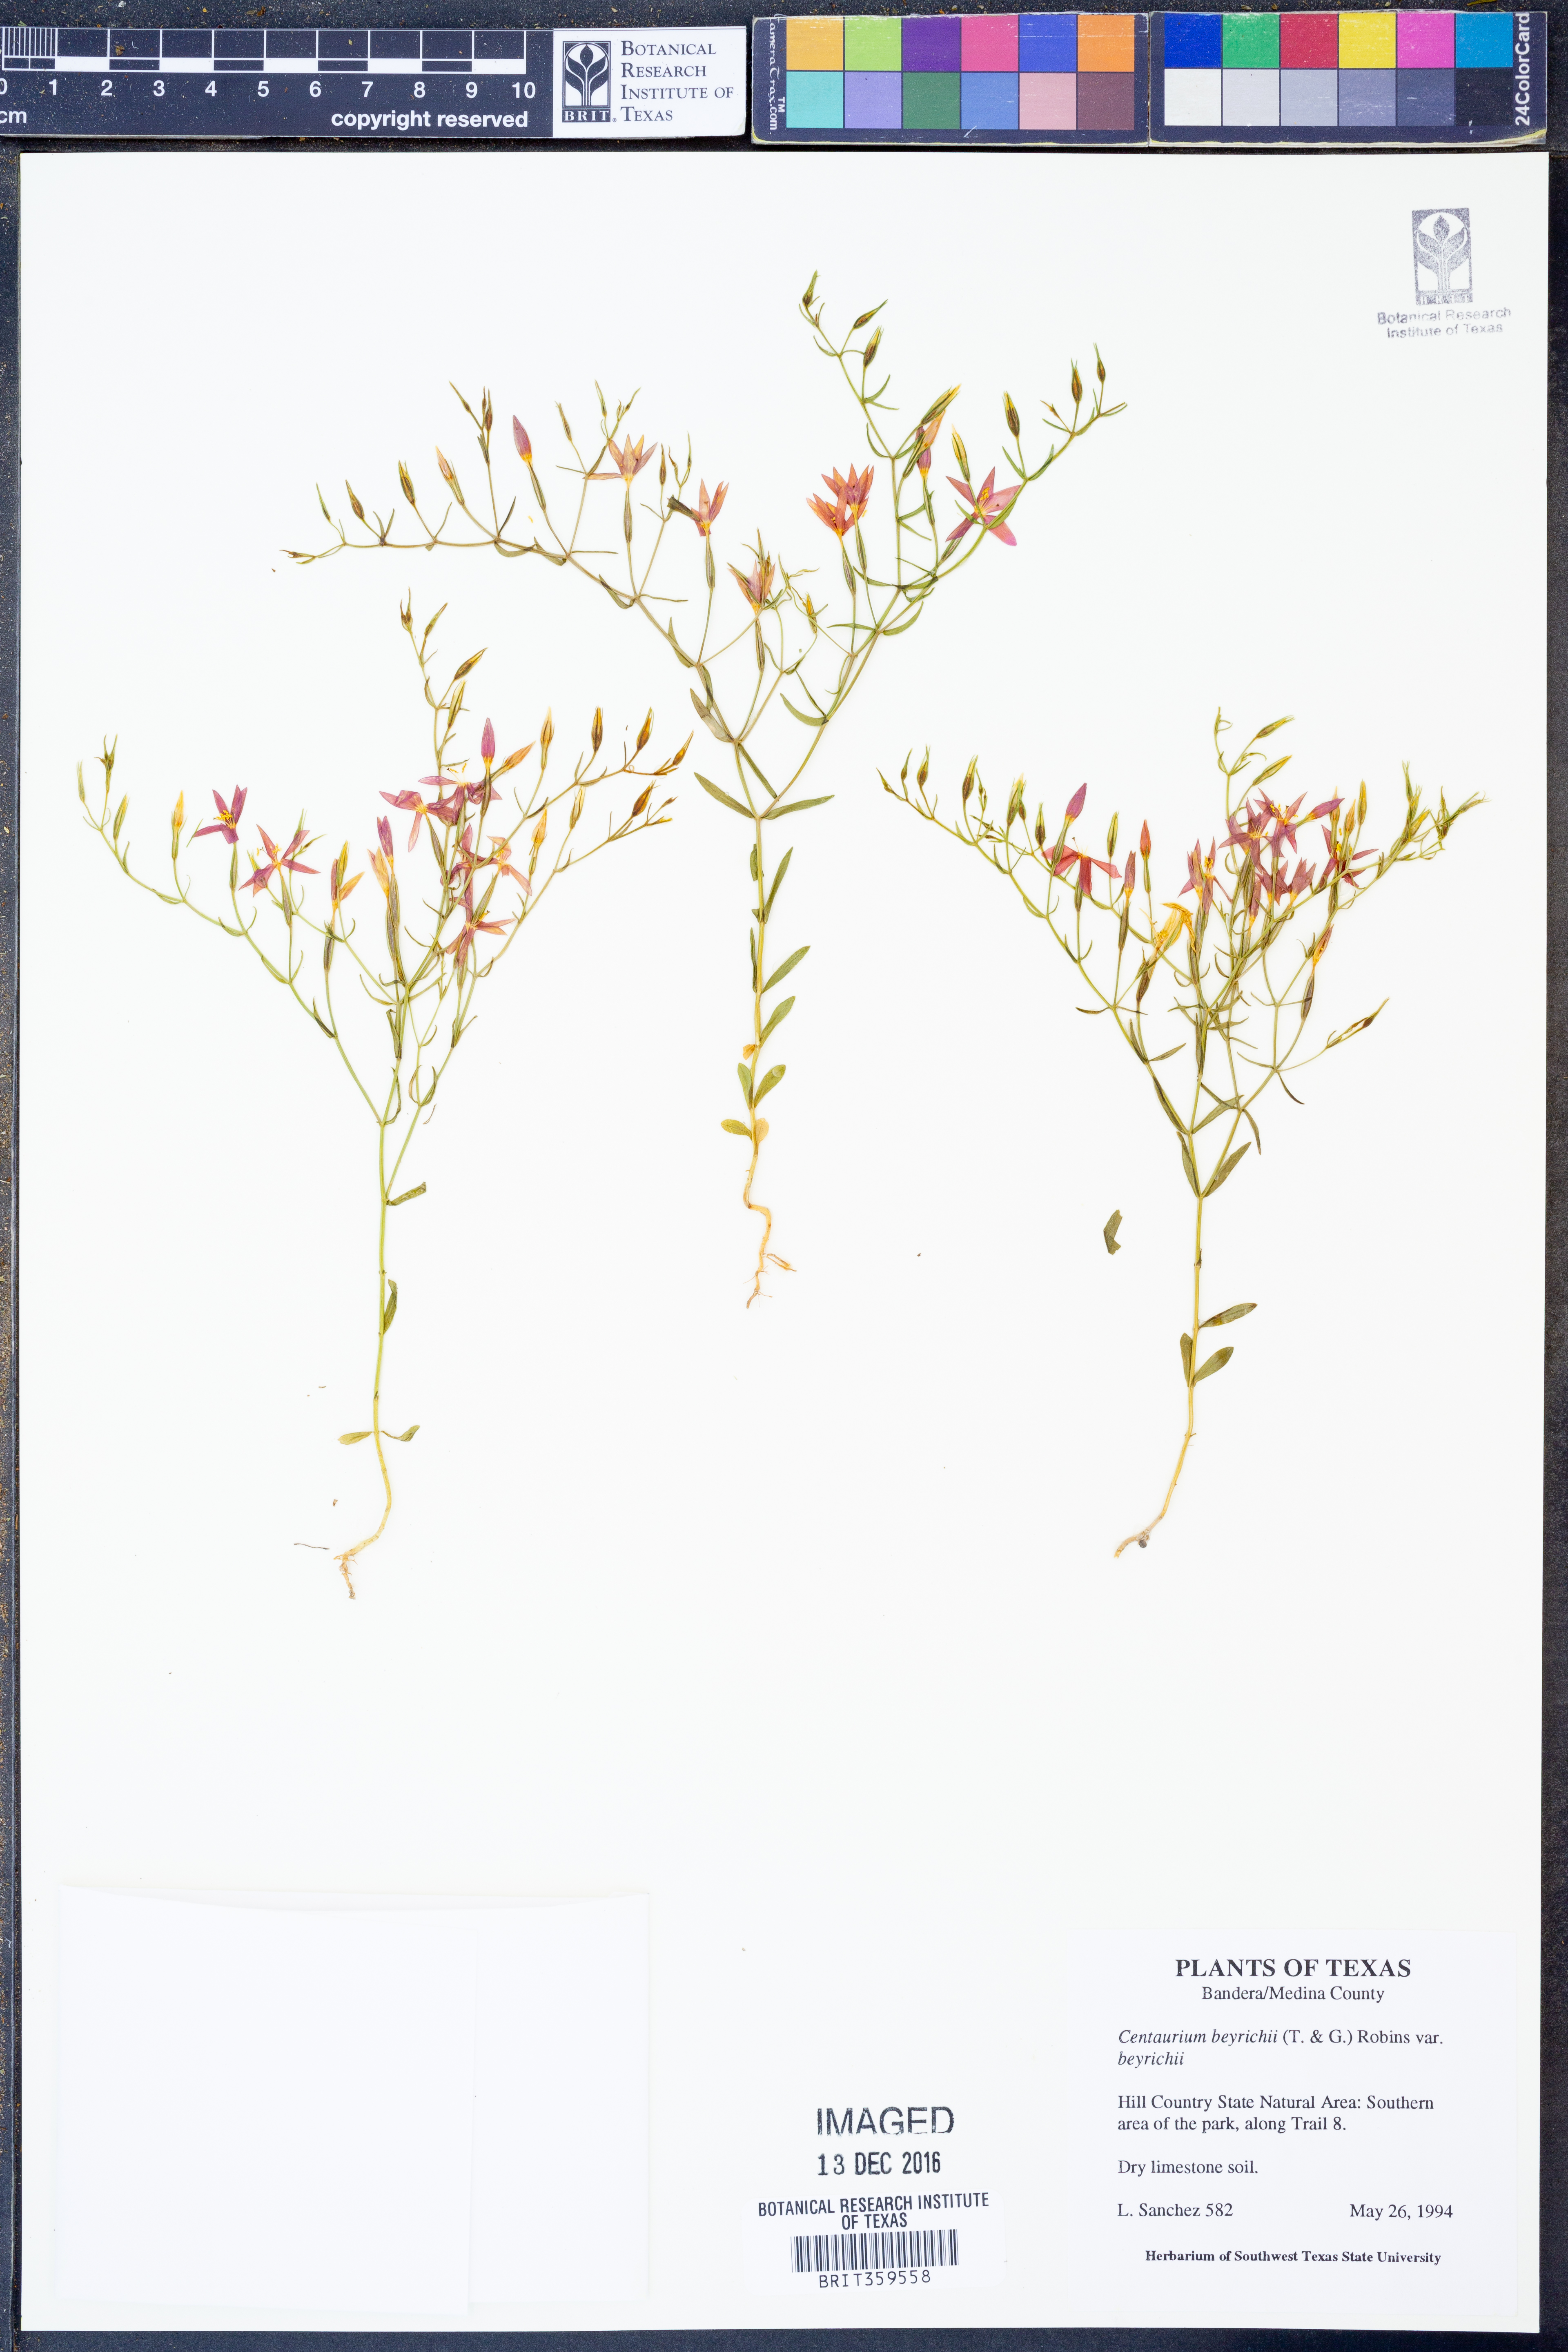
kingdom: Plantae
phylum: Tracheophyta
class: Magnoliopsida
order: Gentianales
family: Gentianaceae
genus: Zeltnera
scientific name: Zeltnera beyrichii
